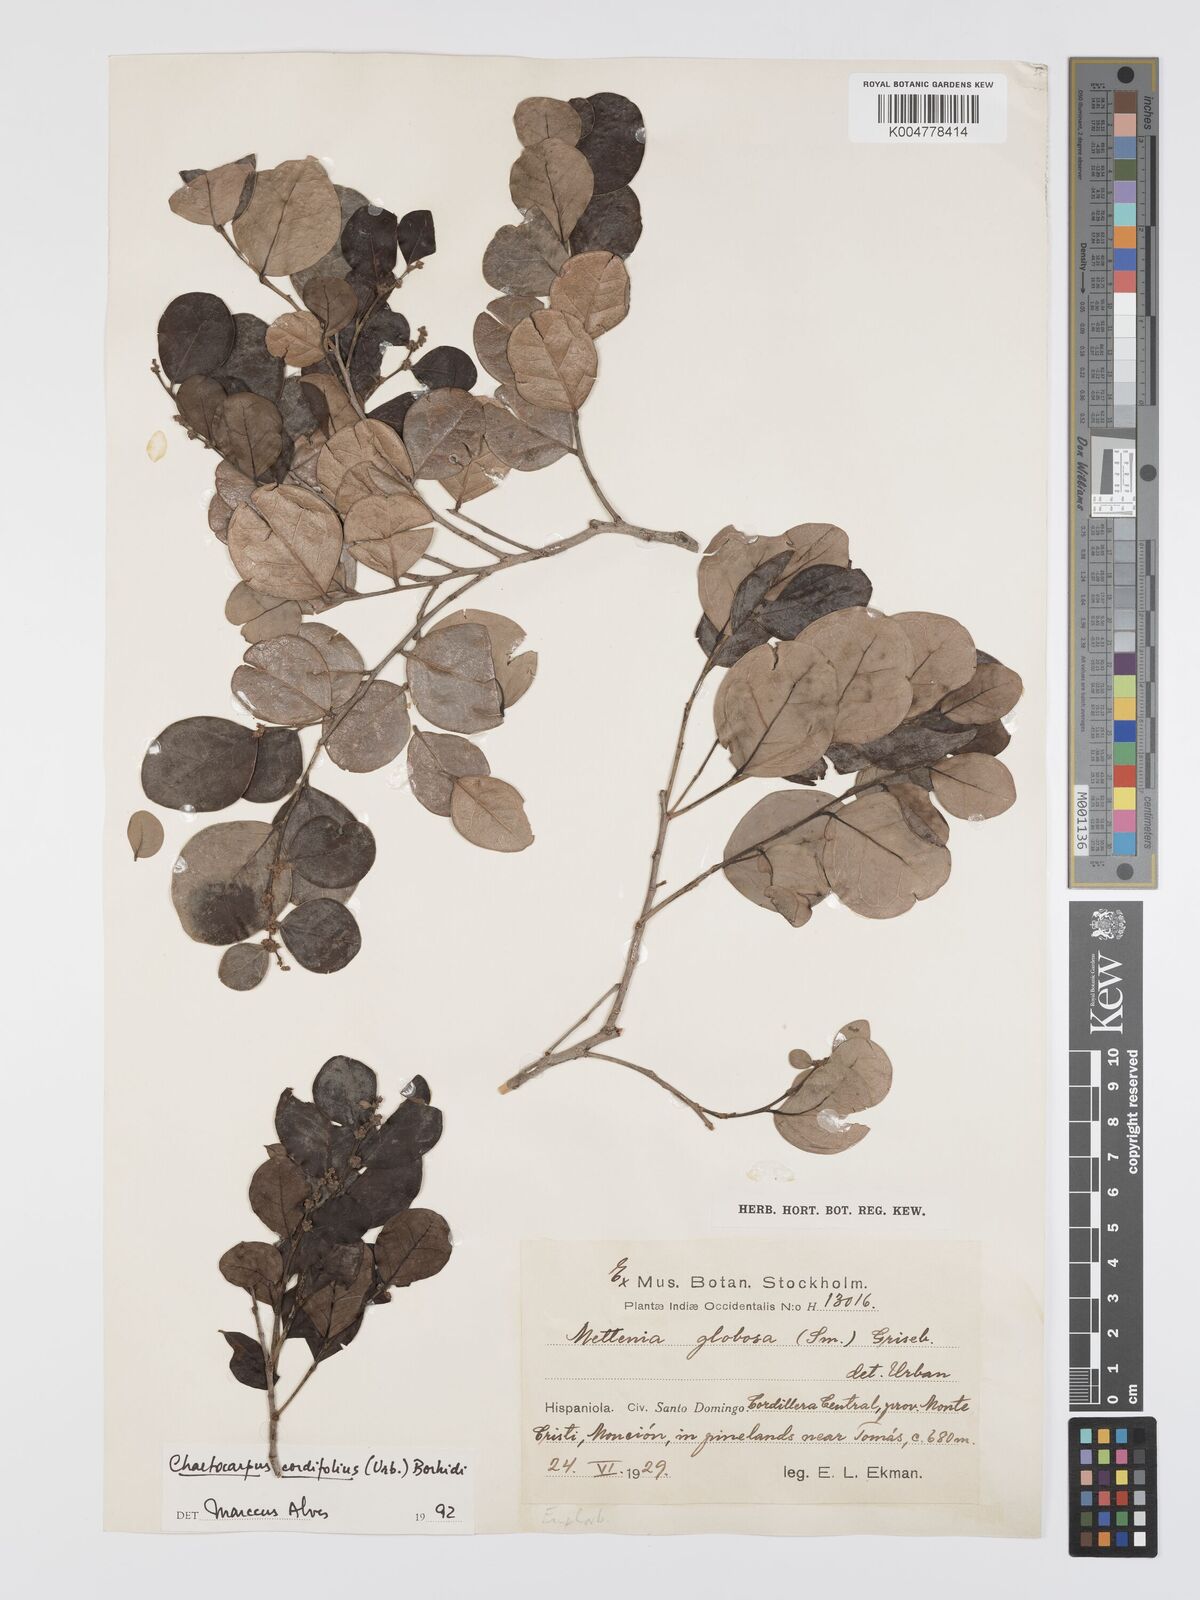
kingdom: Plantae
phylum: Tracheophyta
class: Magnoliopsida
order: Malpighiales
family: Peraceae
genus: Chaetocarpus
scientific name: Chaetocarpus cordifolius
